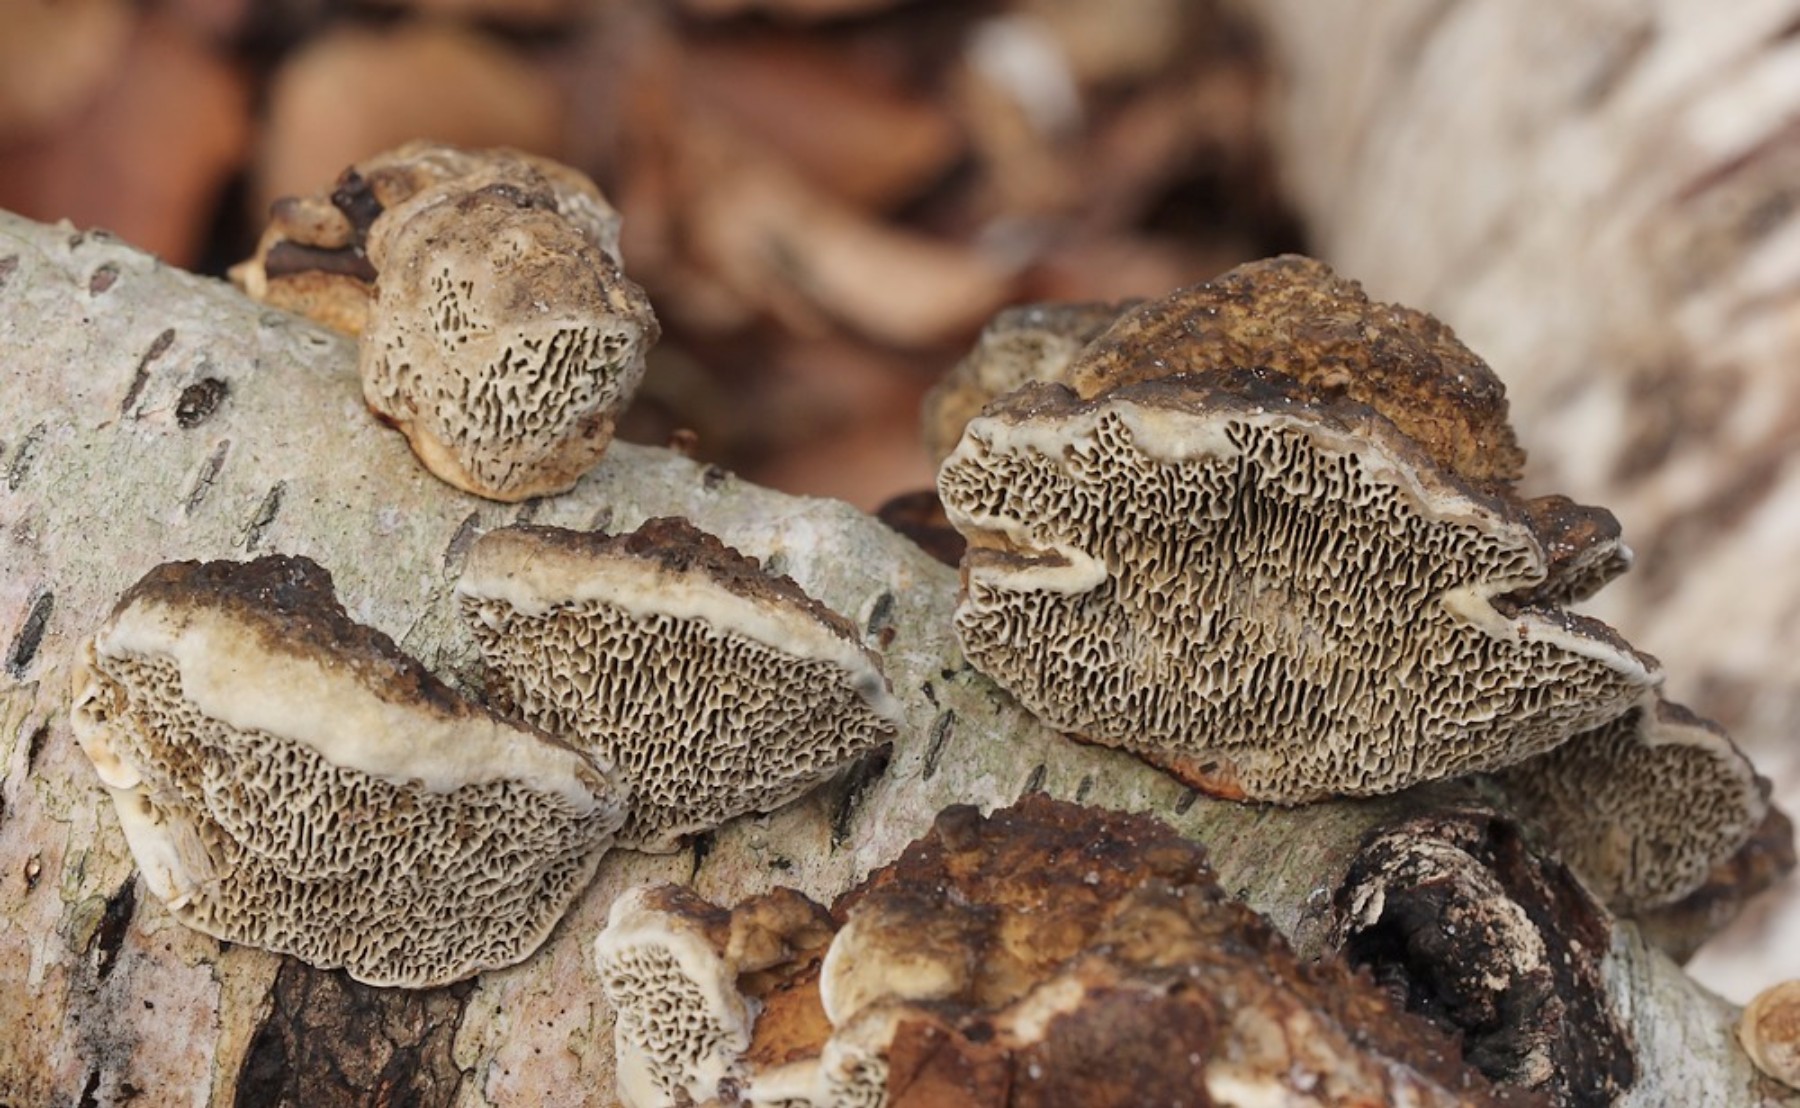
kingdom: Fungi
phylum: Basidiomycota
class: Agaricomycetes
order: Polyporales
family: Polyporaceae
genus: Daedaleopsis
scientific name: Daedaleopsis confragosa
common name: rødmende læderporesvamp
